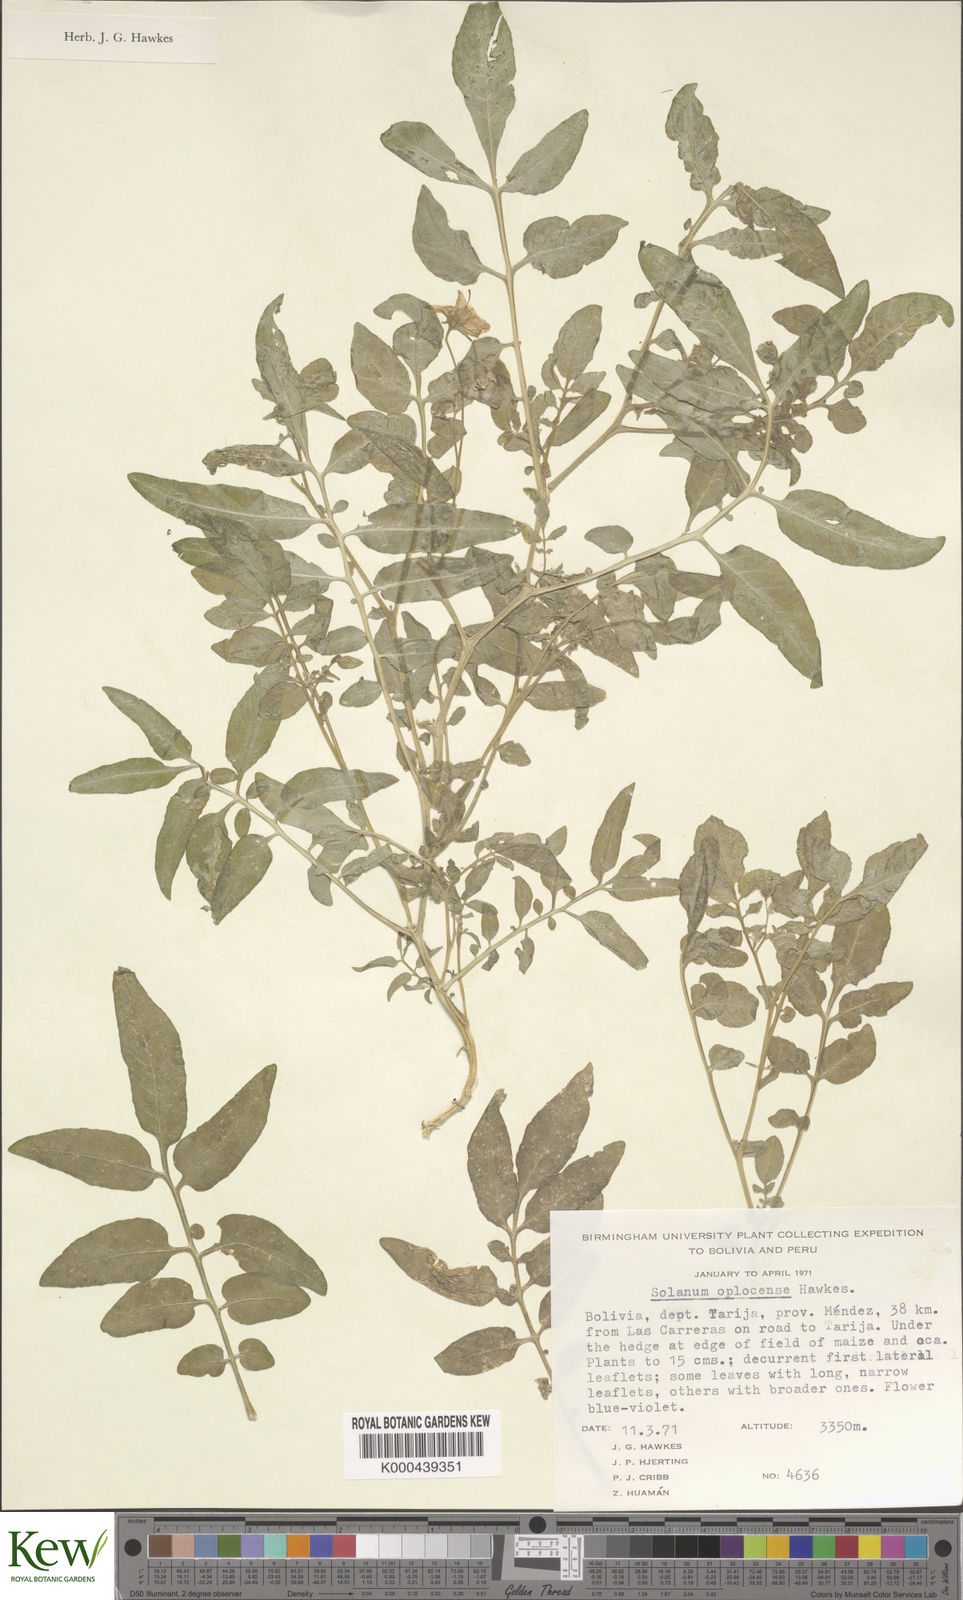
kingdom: Plantae
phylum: Tracheophyta
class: Magnoliopsida
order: Solanales
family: Solanaceae
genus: Solanum
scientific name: Solanum brevicaule
